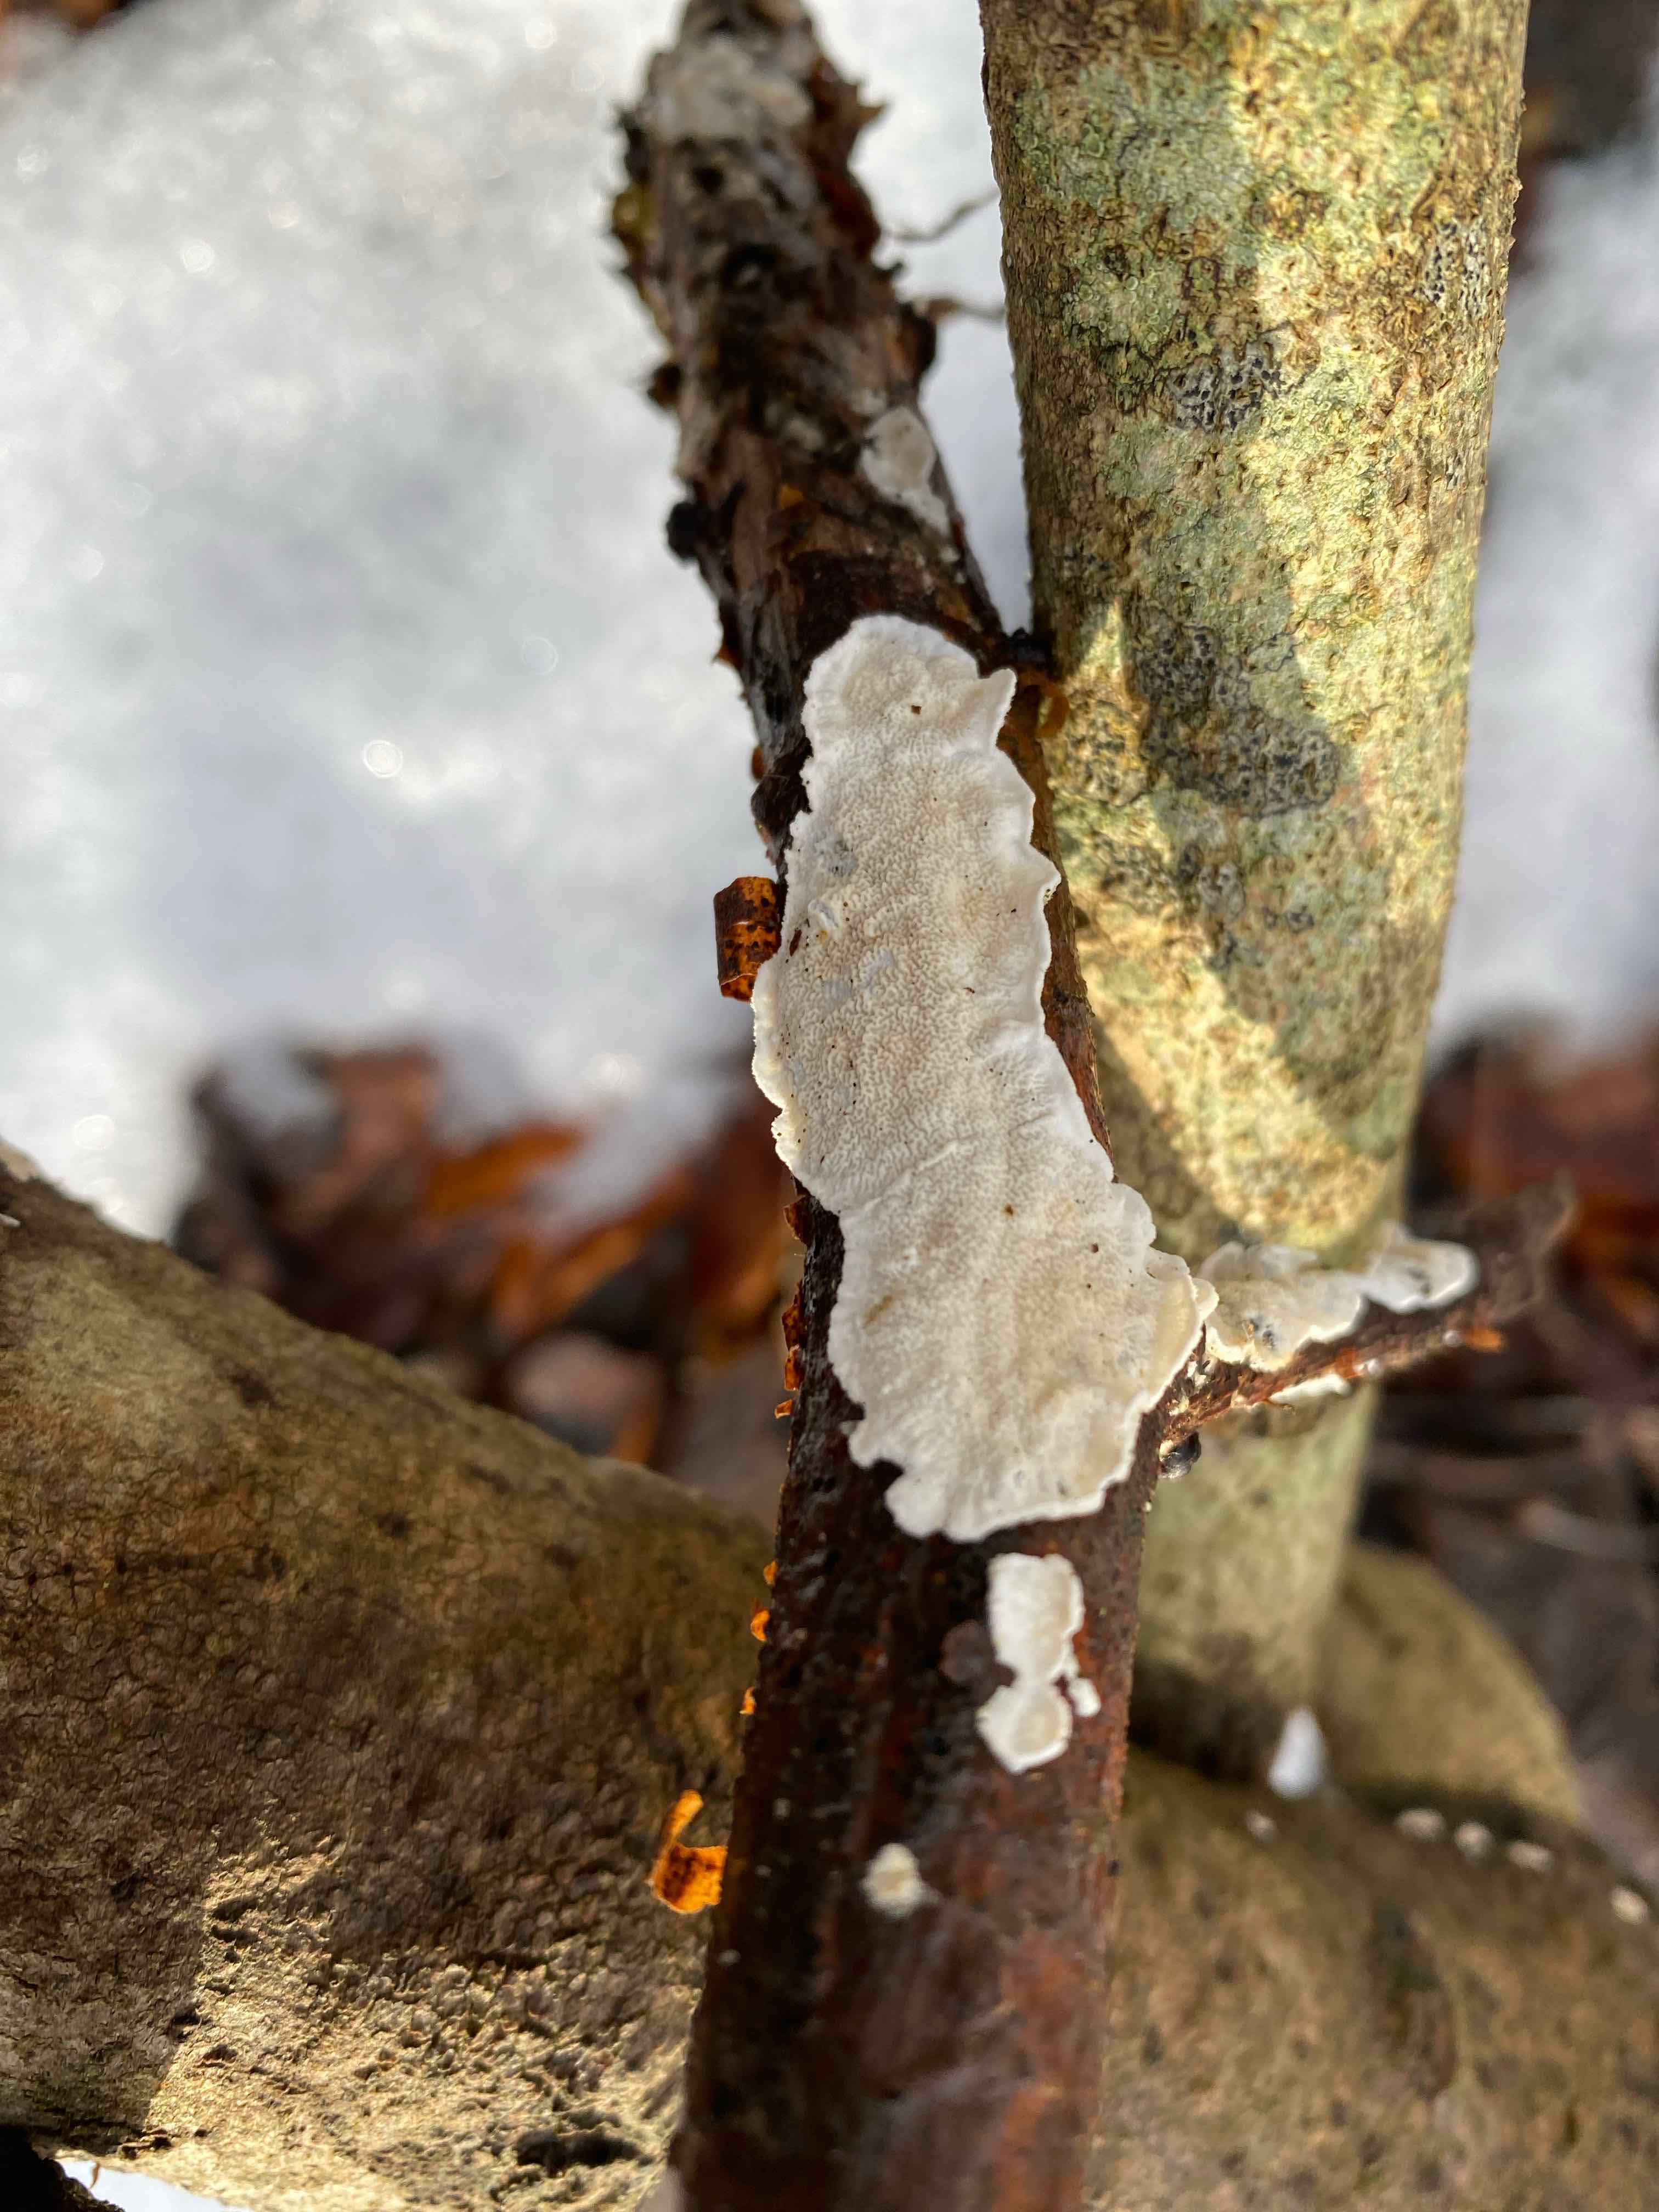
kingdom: Fungi
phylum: Basidiomycota
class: Agaricomycetes
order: Polyporales
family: Irpicaceae
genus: Byssomerulius
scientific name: Byssomerulius corium
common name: læder-åresvamp
